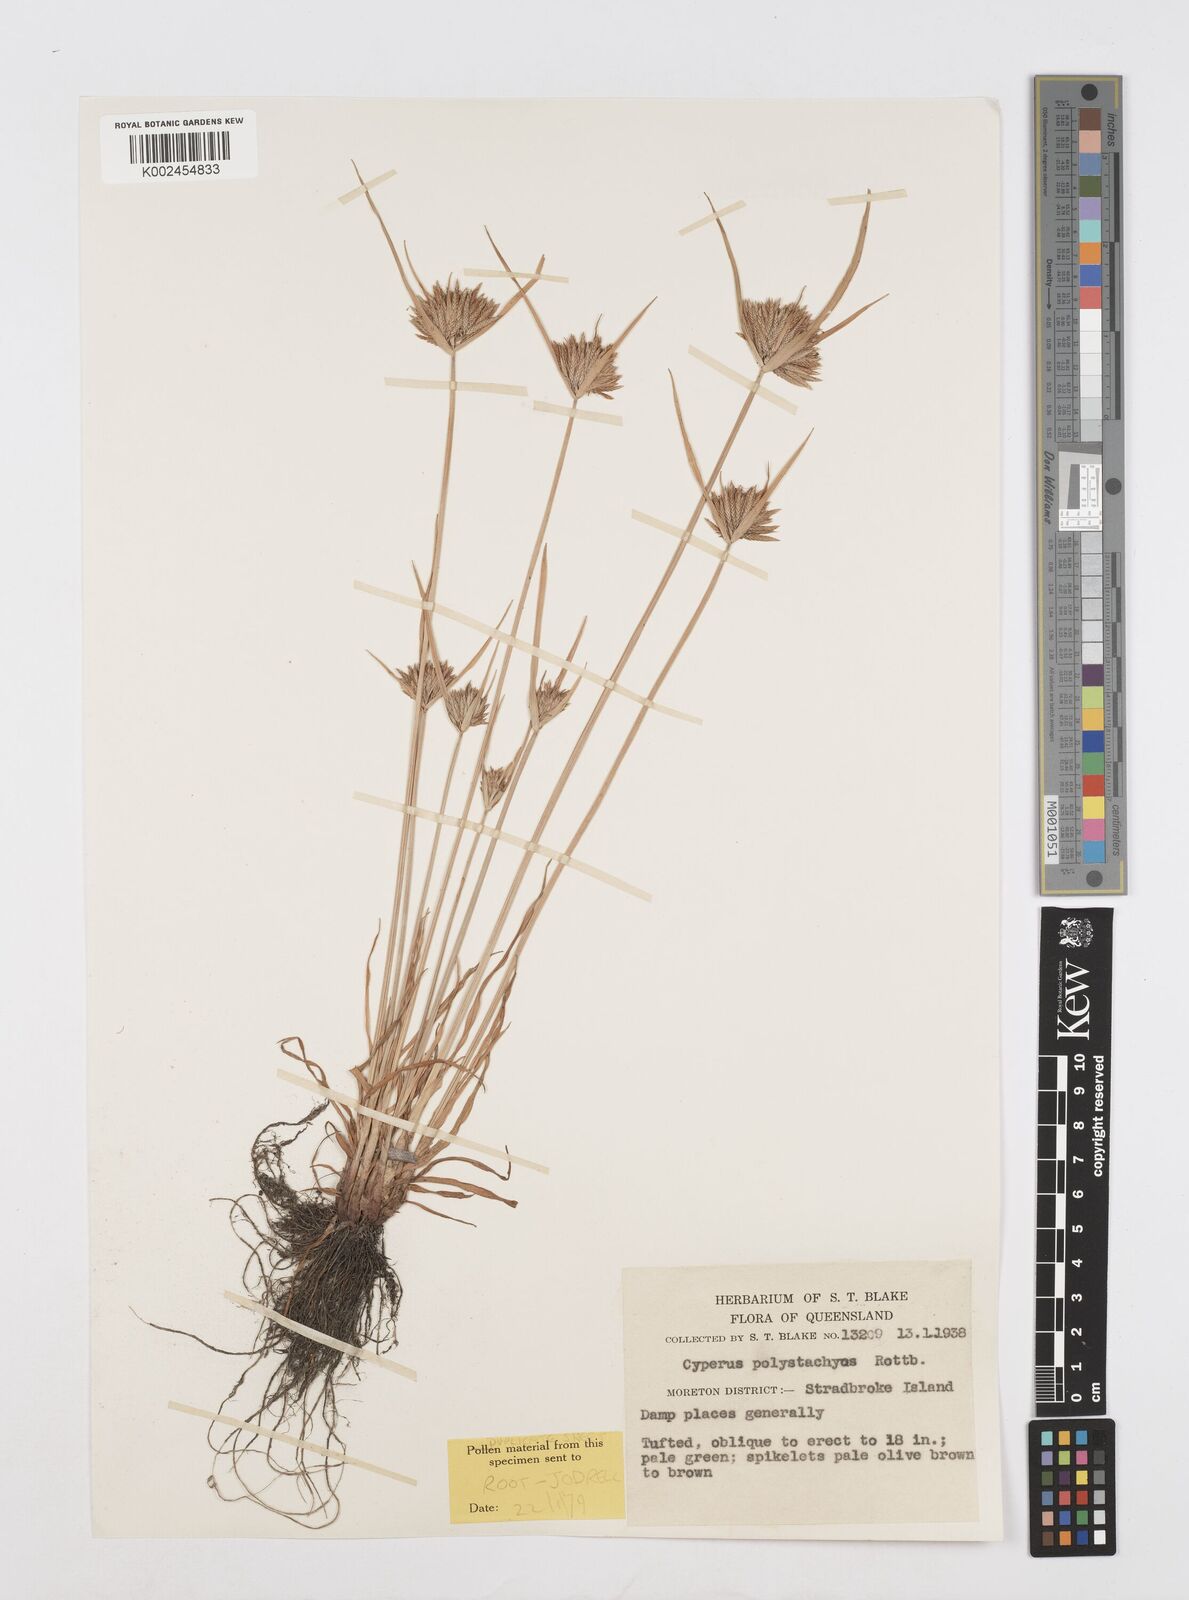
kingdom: Plantae
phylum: Tracheophyta
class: Liliopsida
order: Poales
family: Cyperaceae
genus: Cyperus
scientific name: Cyperus polystachyos
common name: Bunchy flat sedge
